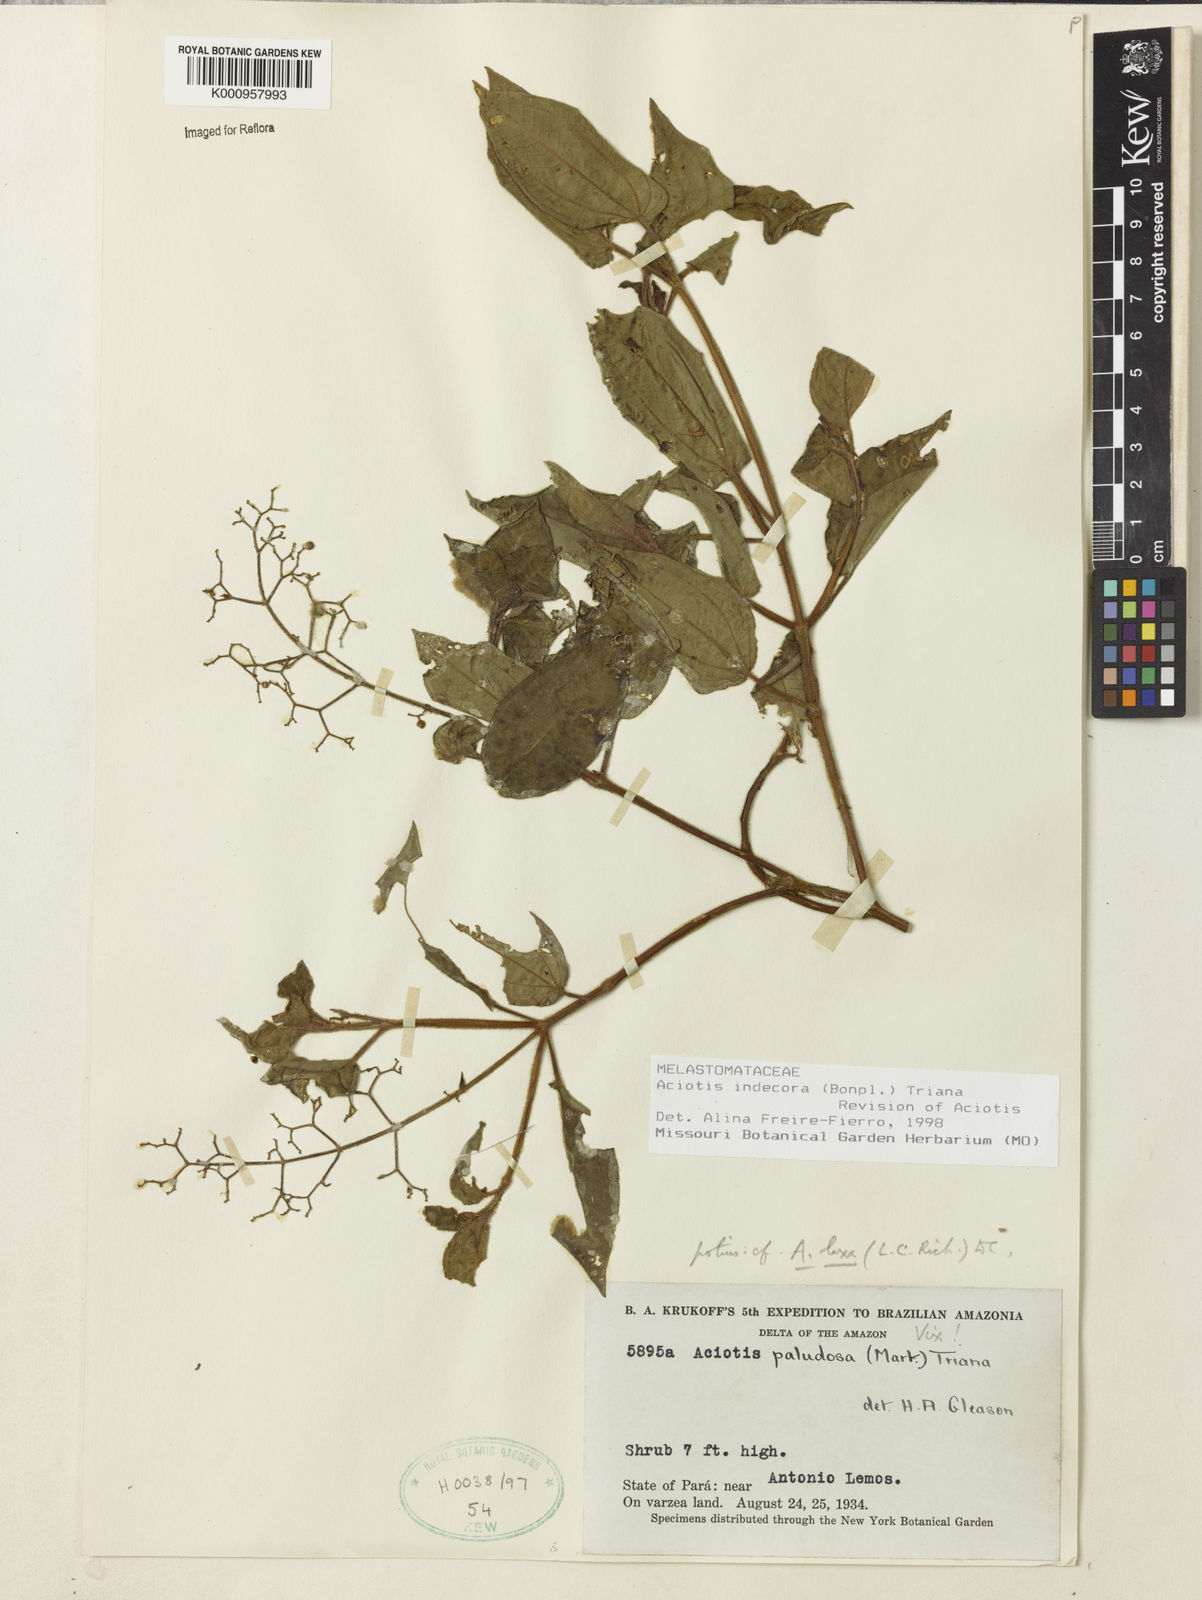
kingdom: Plantae
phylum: Tracheophyta
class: Magnoliopsida
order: Myrtales
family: Melastomataceae
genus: Aciotis
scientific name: Aciotis indecora
